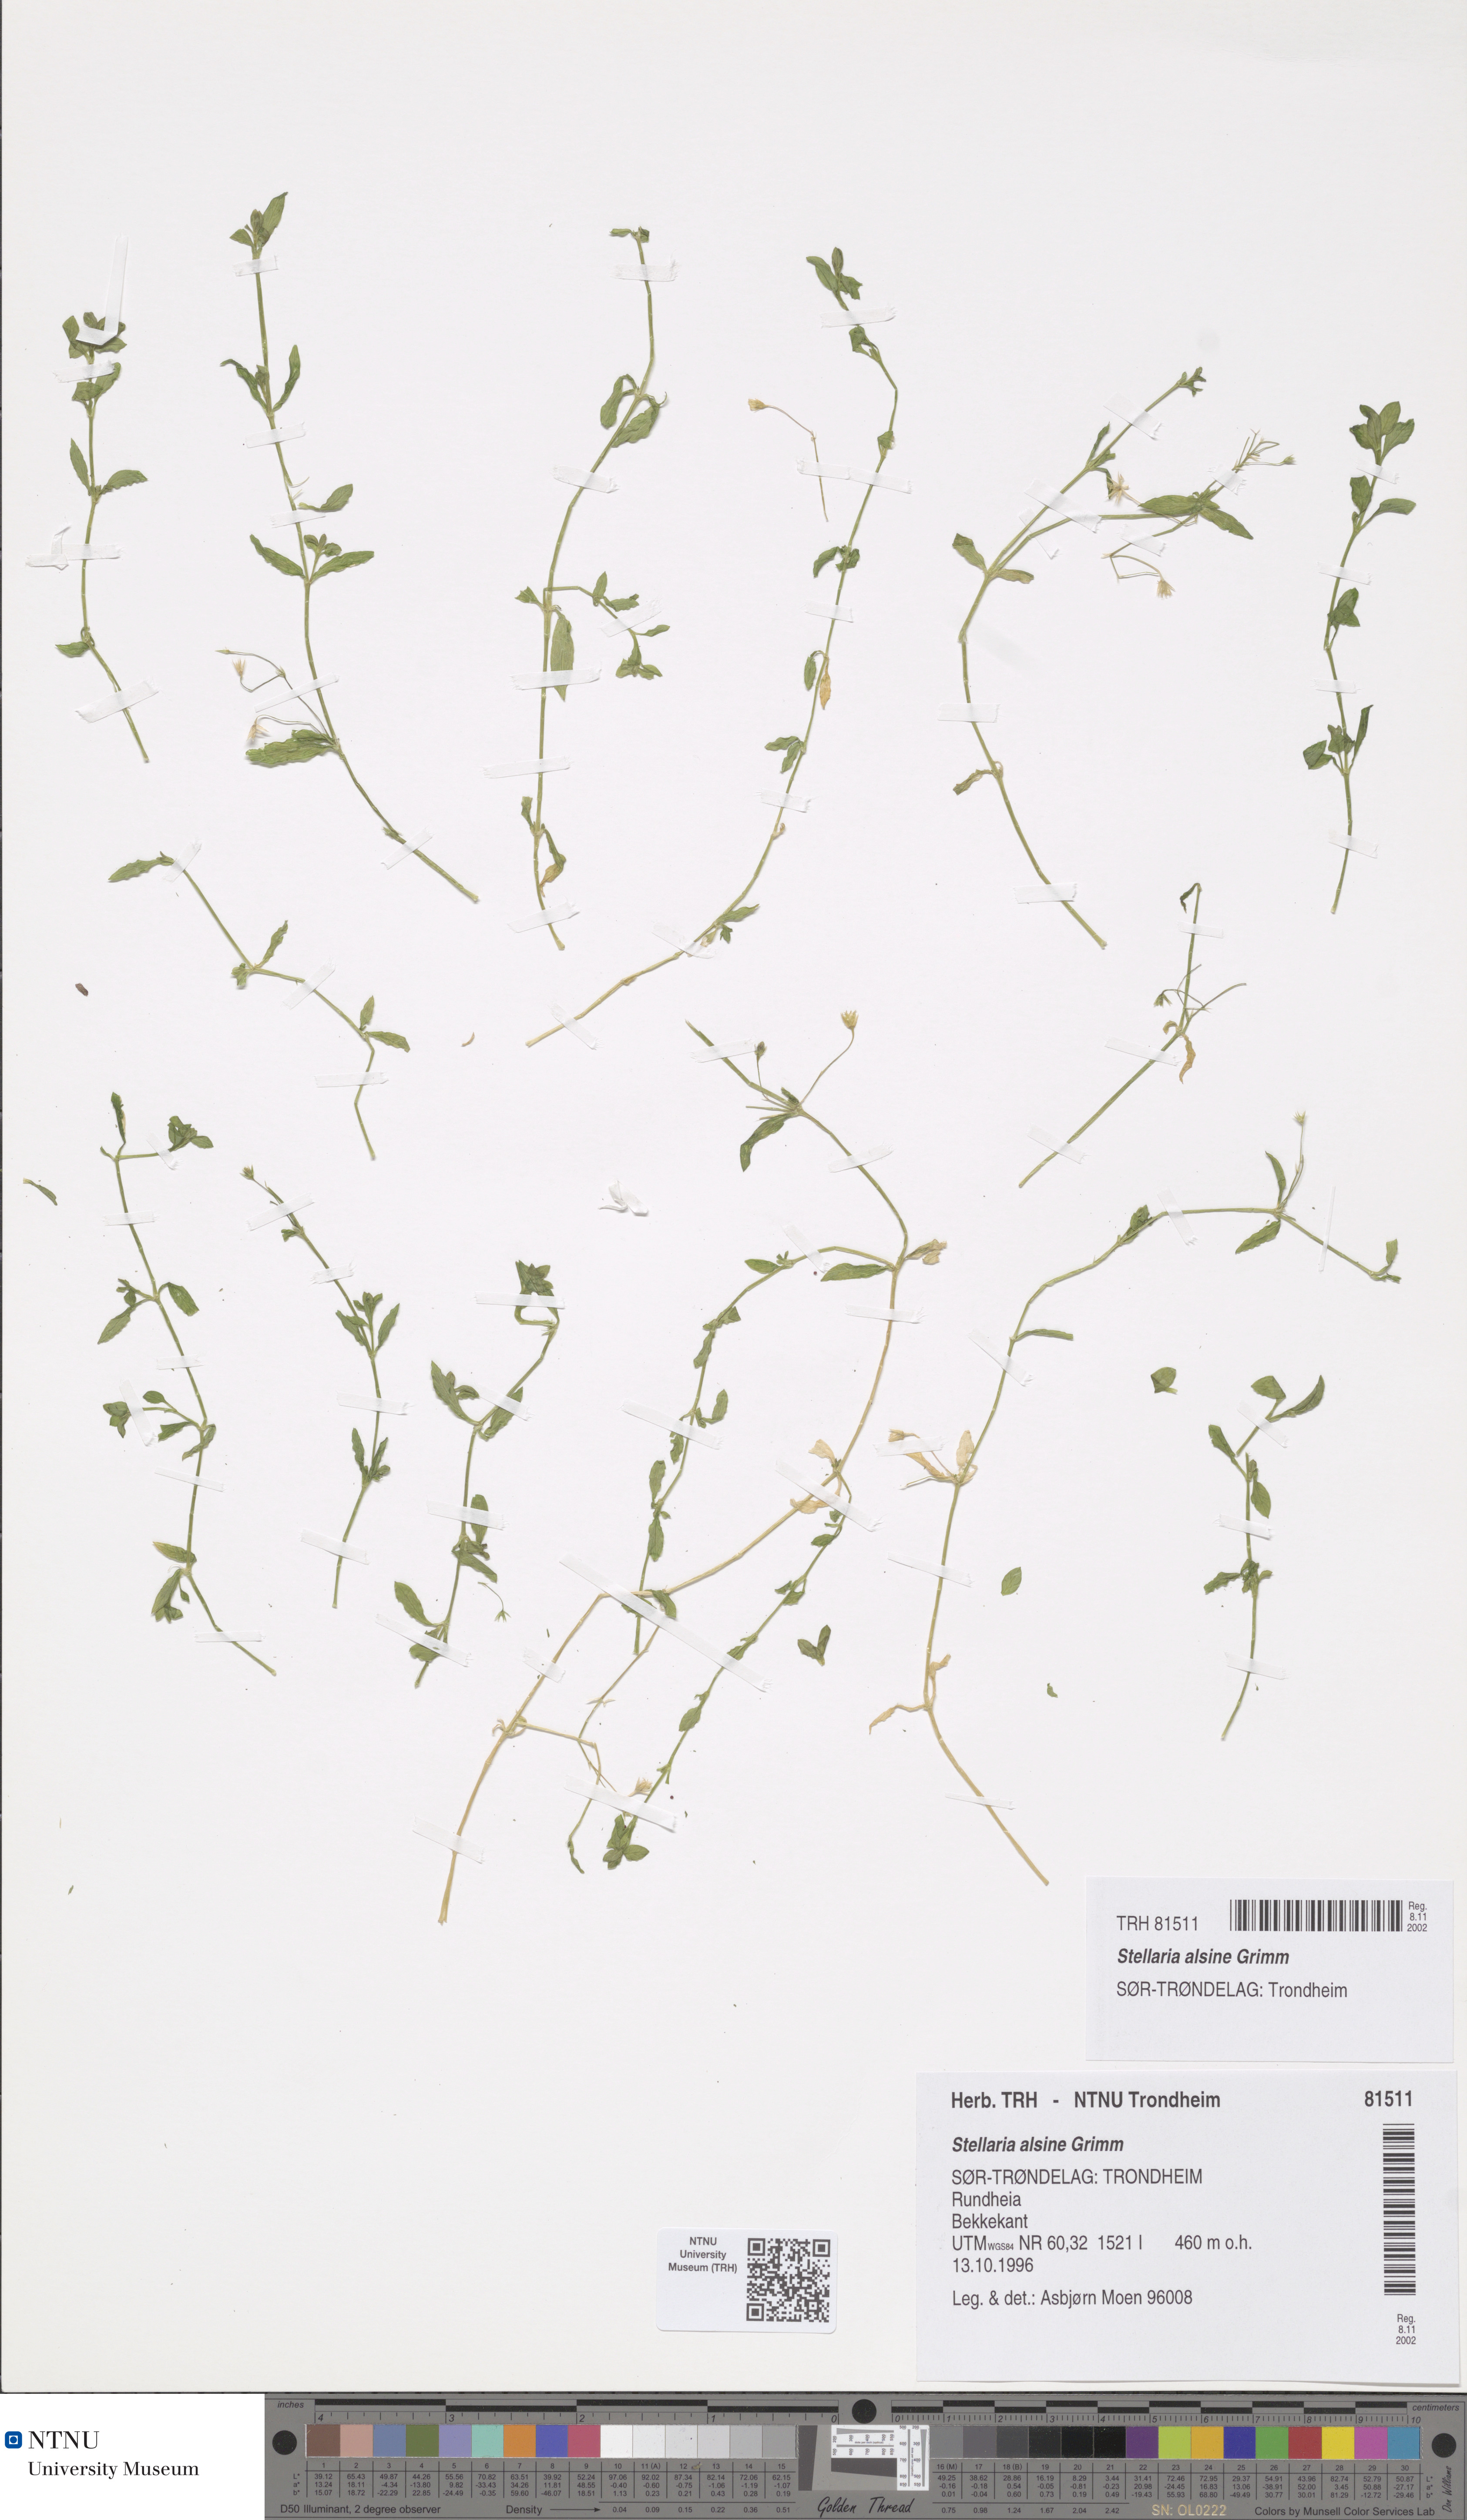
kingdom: Plantae
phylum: Tracheophyta
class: Magnoliopsida
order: Caryophyllales
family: Caryophyllaceae
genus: Stellaria
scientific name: Stellaria alsine
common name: Bog stitchwort
